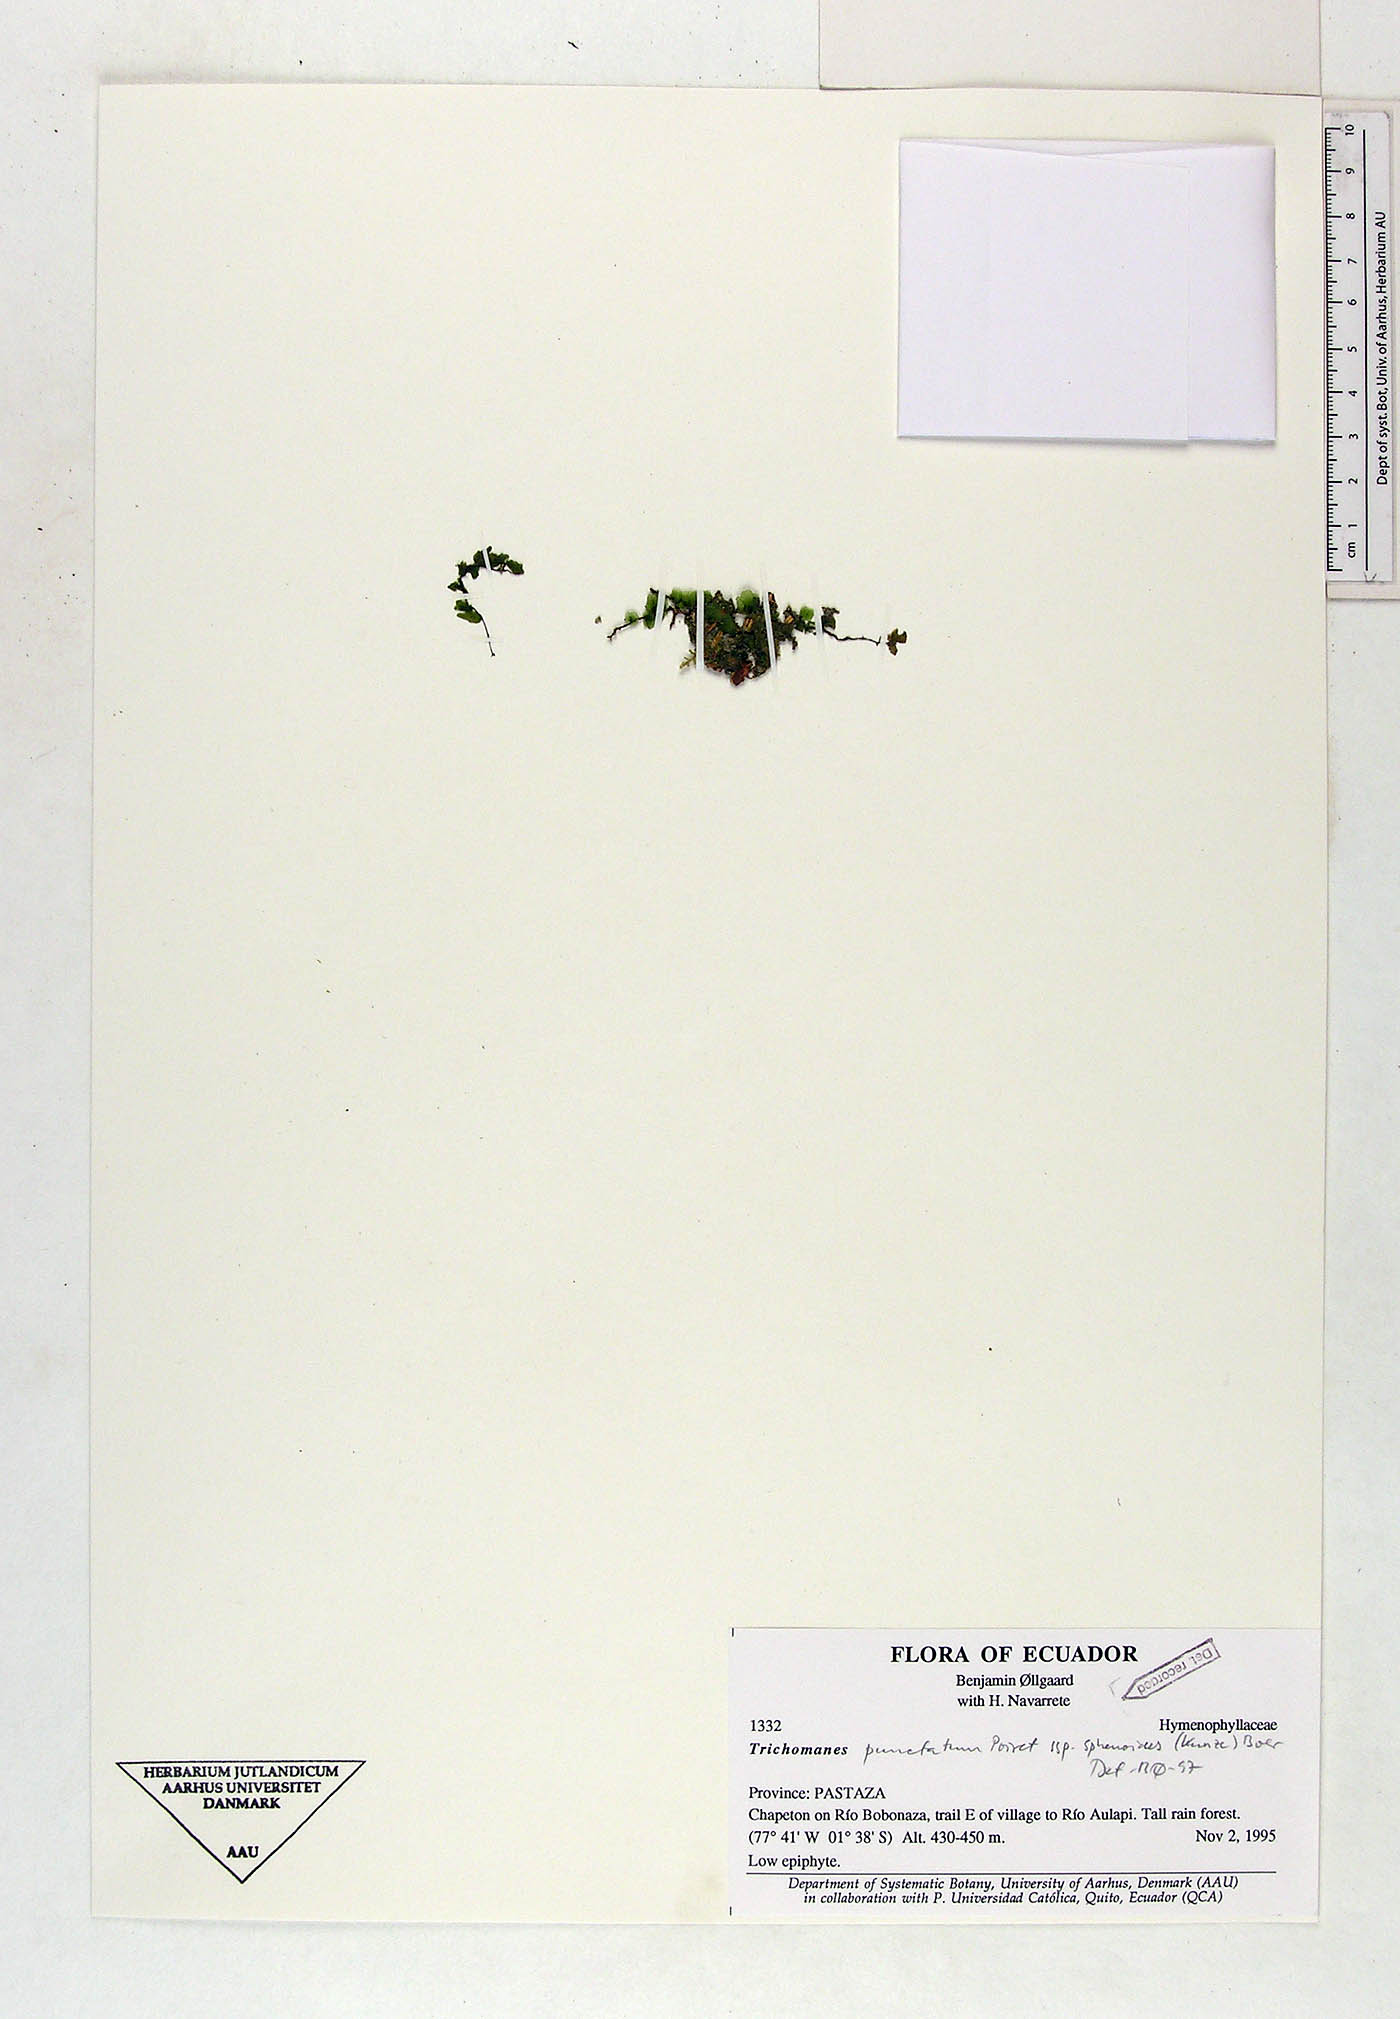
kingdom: Plantae
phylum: Tracheophyta
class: Polypodiopsida
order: Hymenophyllales
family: Hymenophyllaceae
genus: Didymoglossum
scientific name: Didymoglossum punctatum
